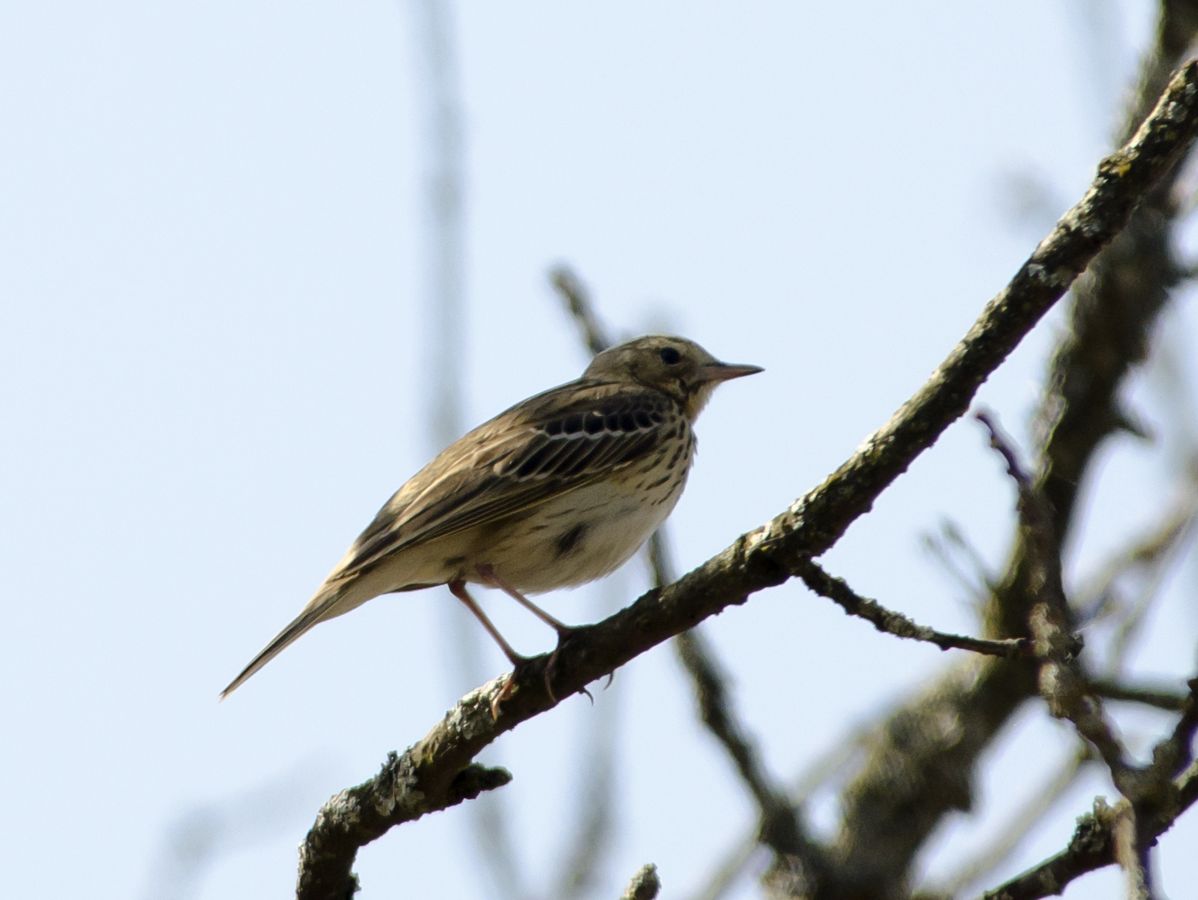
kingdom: Animalia
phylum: Chordata
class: Aves
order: Passeriformes
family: Motacillidae
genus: Anthus
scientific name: Anthus trivialis
